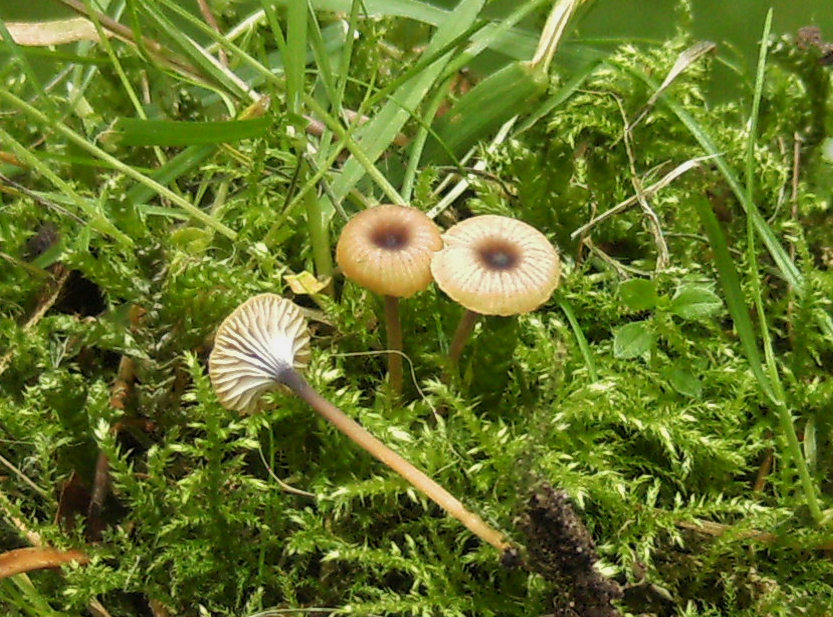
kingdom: Fungi
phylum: Basidiomycota
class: Agaricomycetes
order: Hymenochaetales
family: Rickenellaceae
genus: Rickenella
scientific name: Rickenella swartzii
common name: finstokket mosnavlehat
